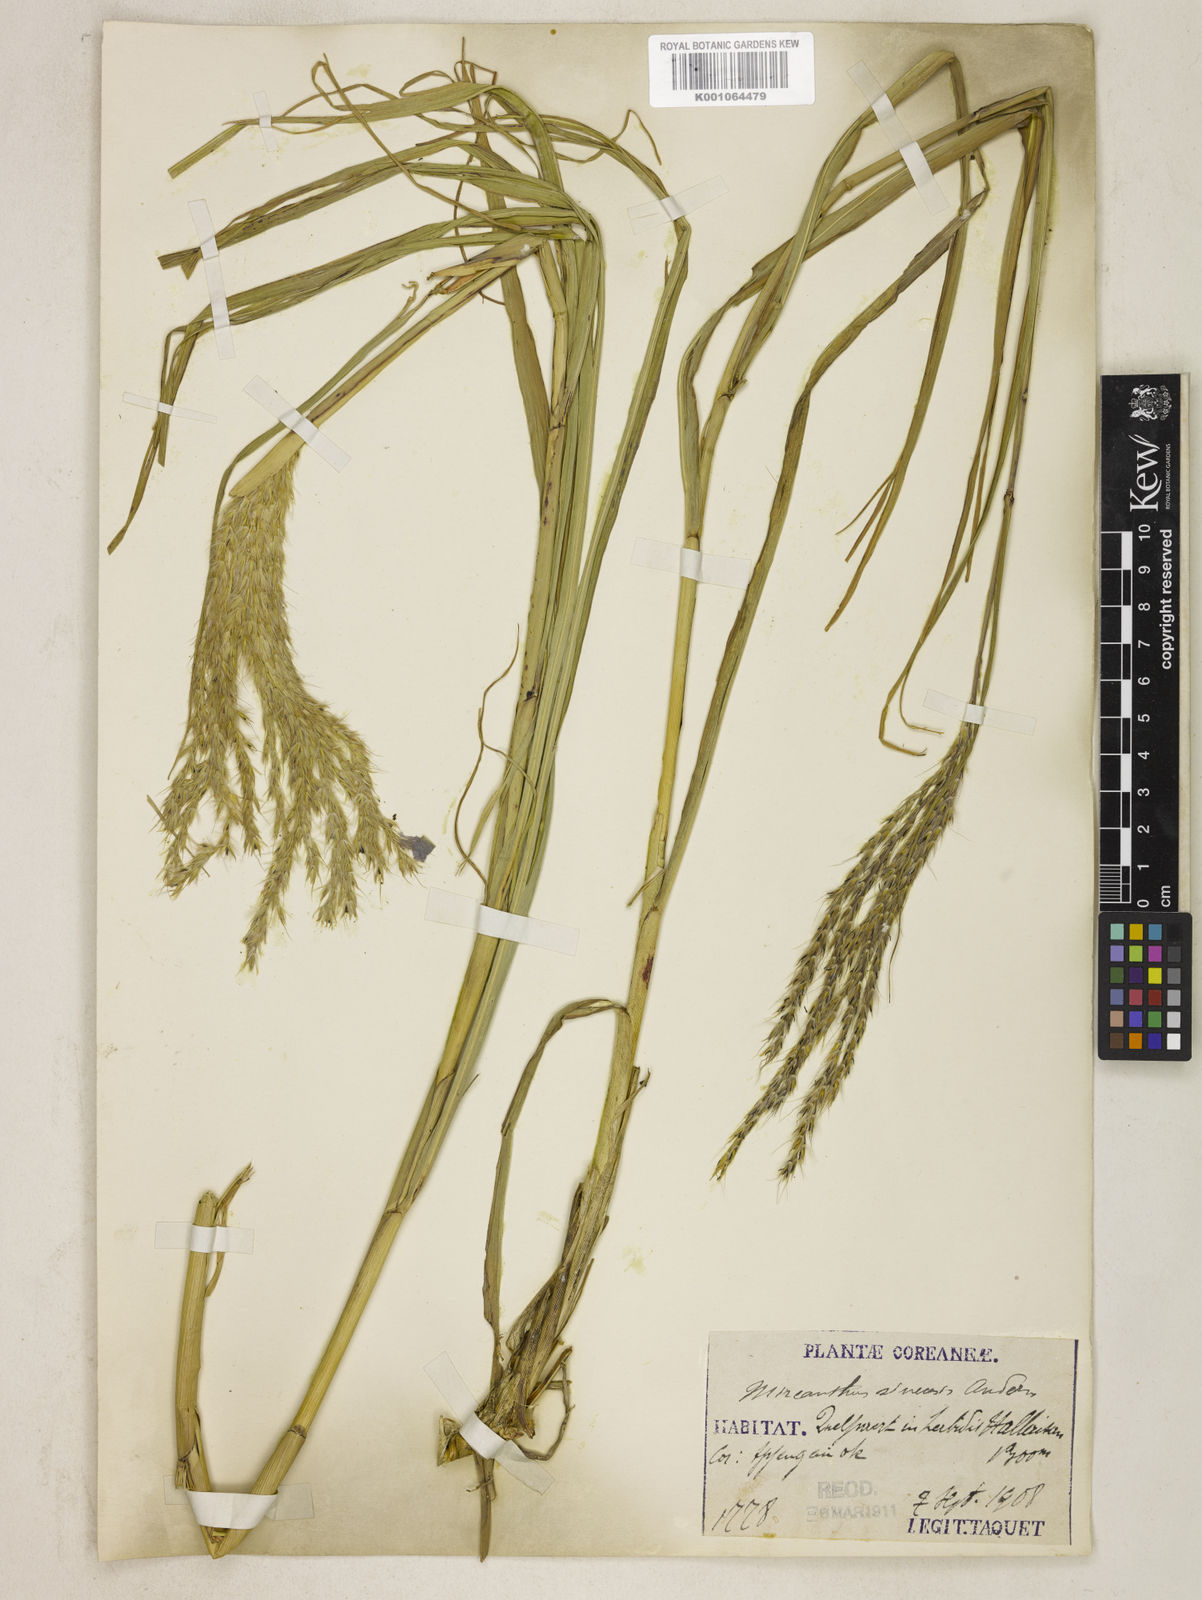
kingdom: Plantae
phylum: Tracheophyta
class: Liliopsida
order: Poales
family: Poaceae
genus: Miscanthus
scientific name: Miscanthus sinensis
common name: Chinese silvergrass
